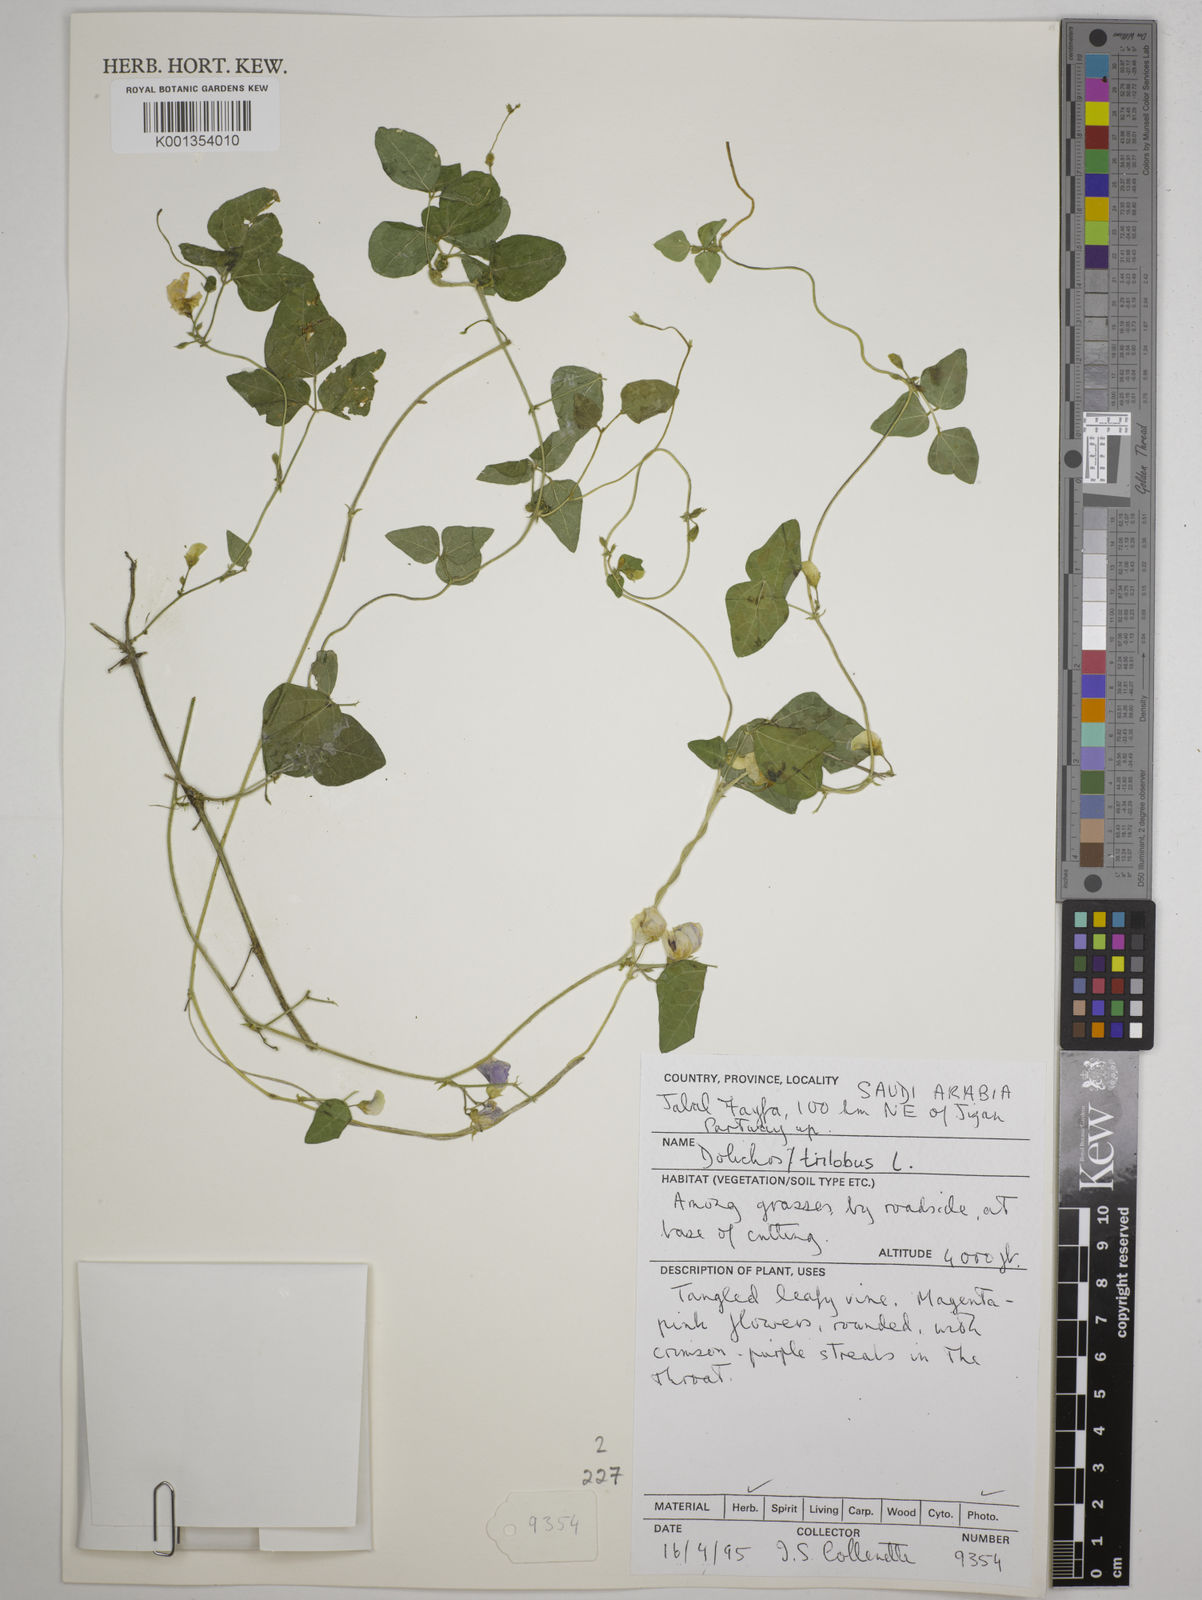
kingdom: Plantae
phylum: Tracheophyta
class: Magnoliopsida
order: Fabales
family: Fabaceae
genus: Dolichos
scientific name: Dolichos
